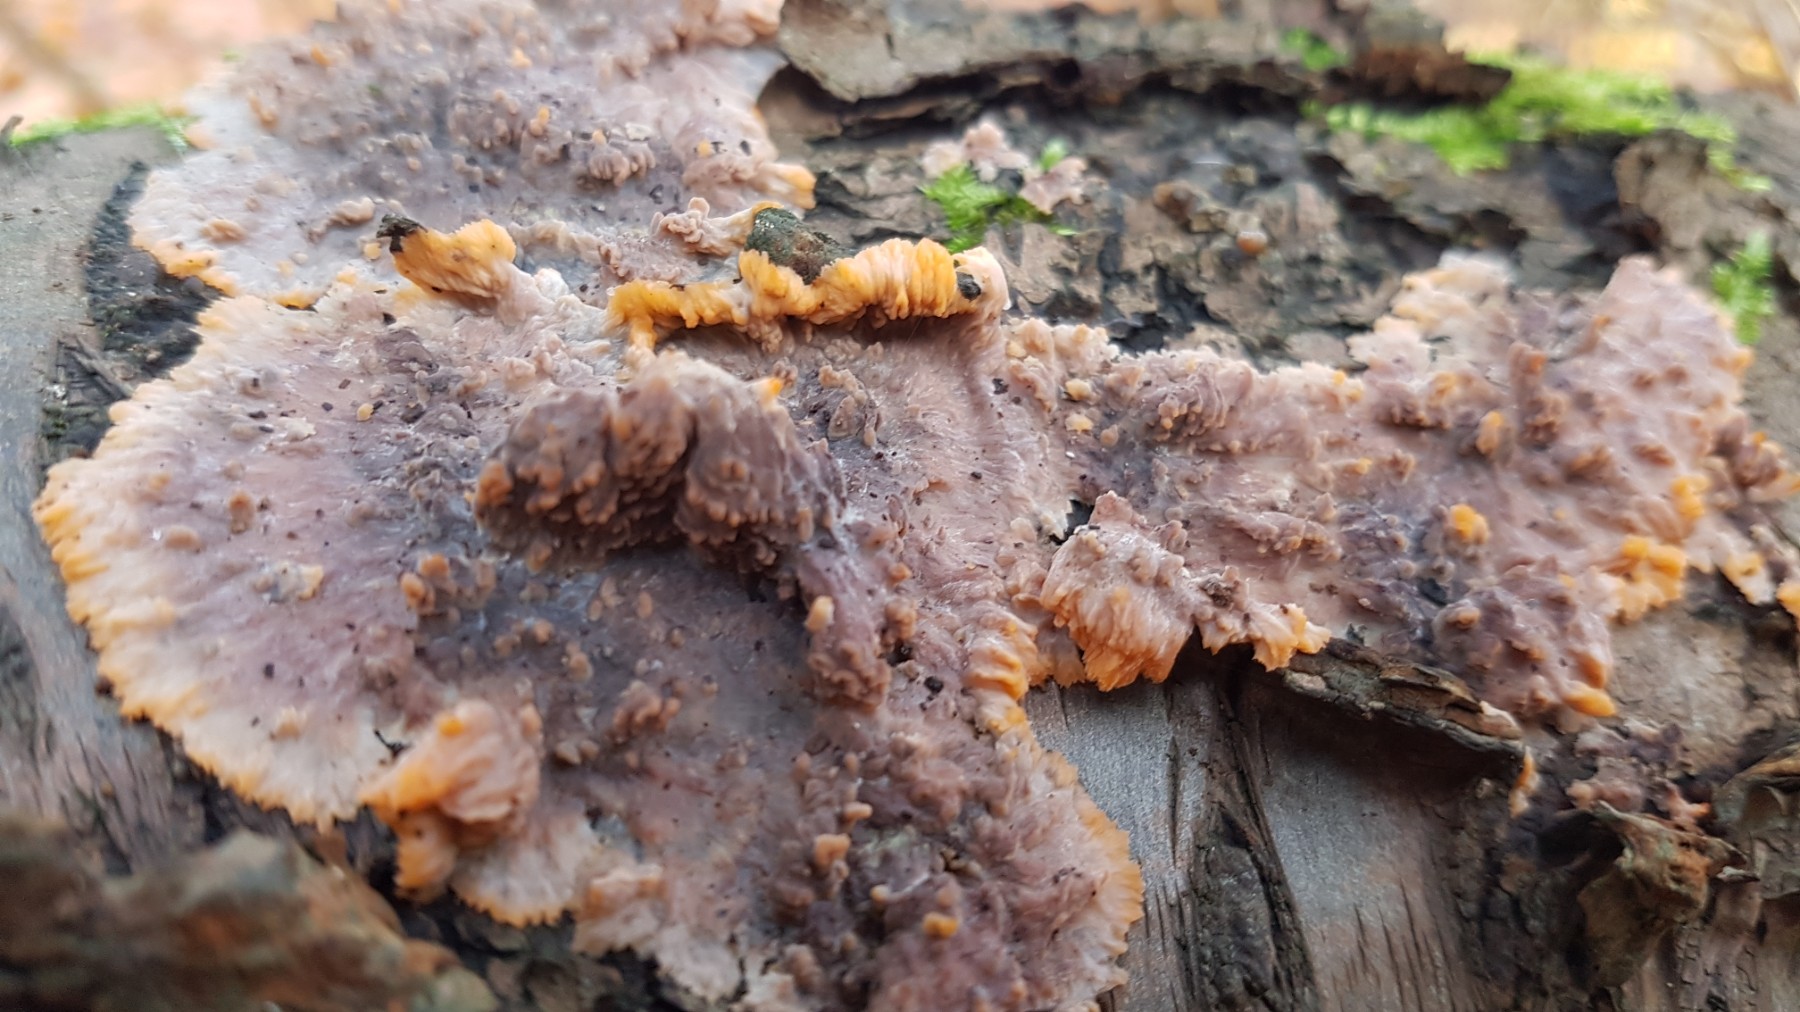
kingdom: Fungi
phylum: Basidiomycota
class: Agaricomycetes
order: Polyporales
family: Meruliaceae
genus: Phlebia
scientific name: Phlebia radiata
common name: stråle-åresvamp
